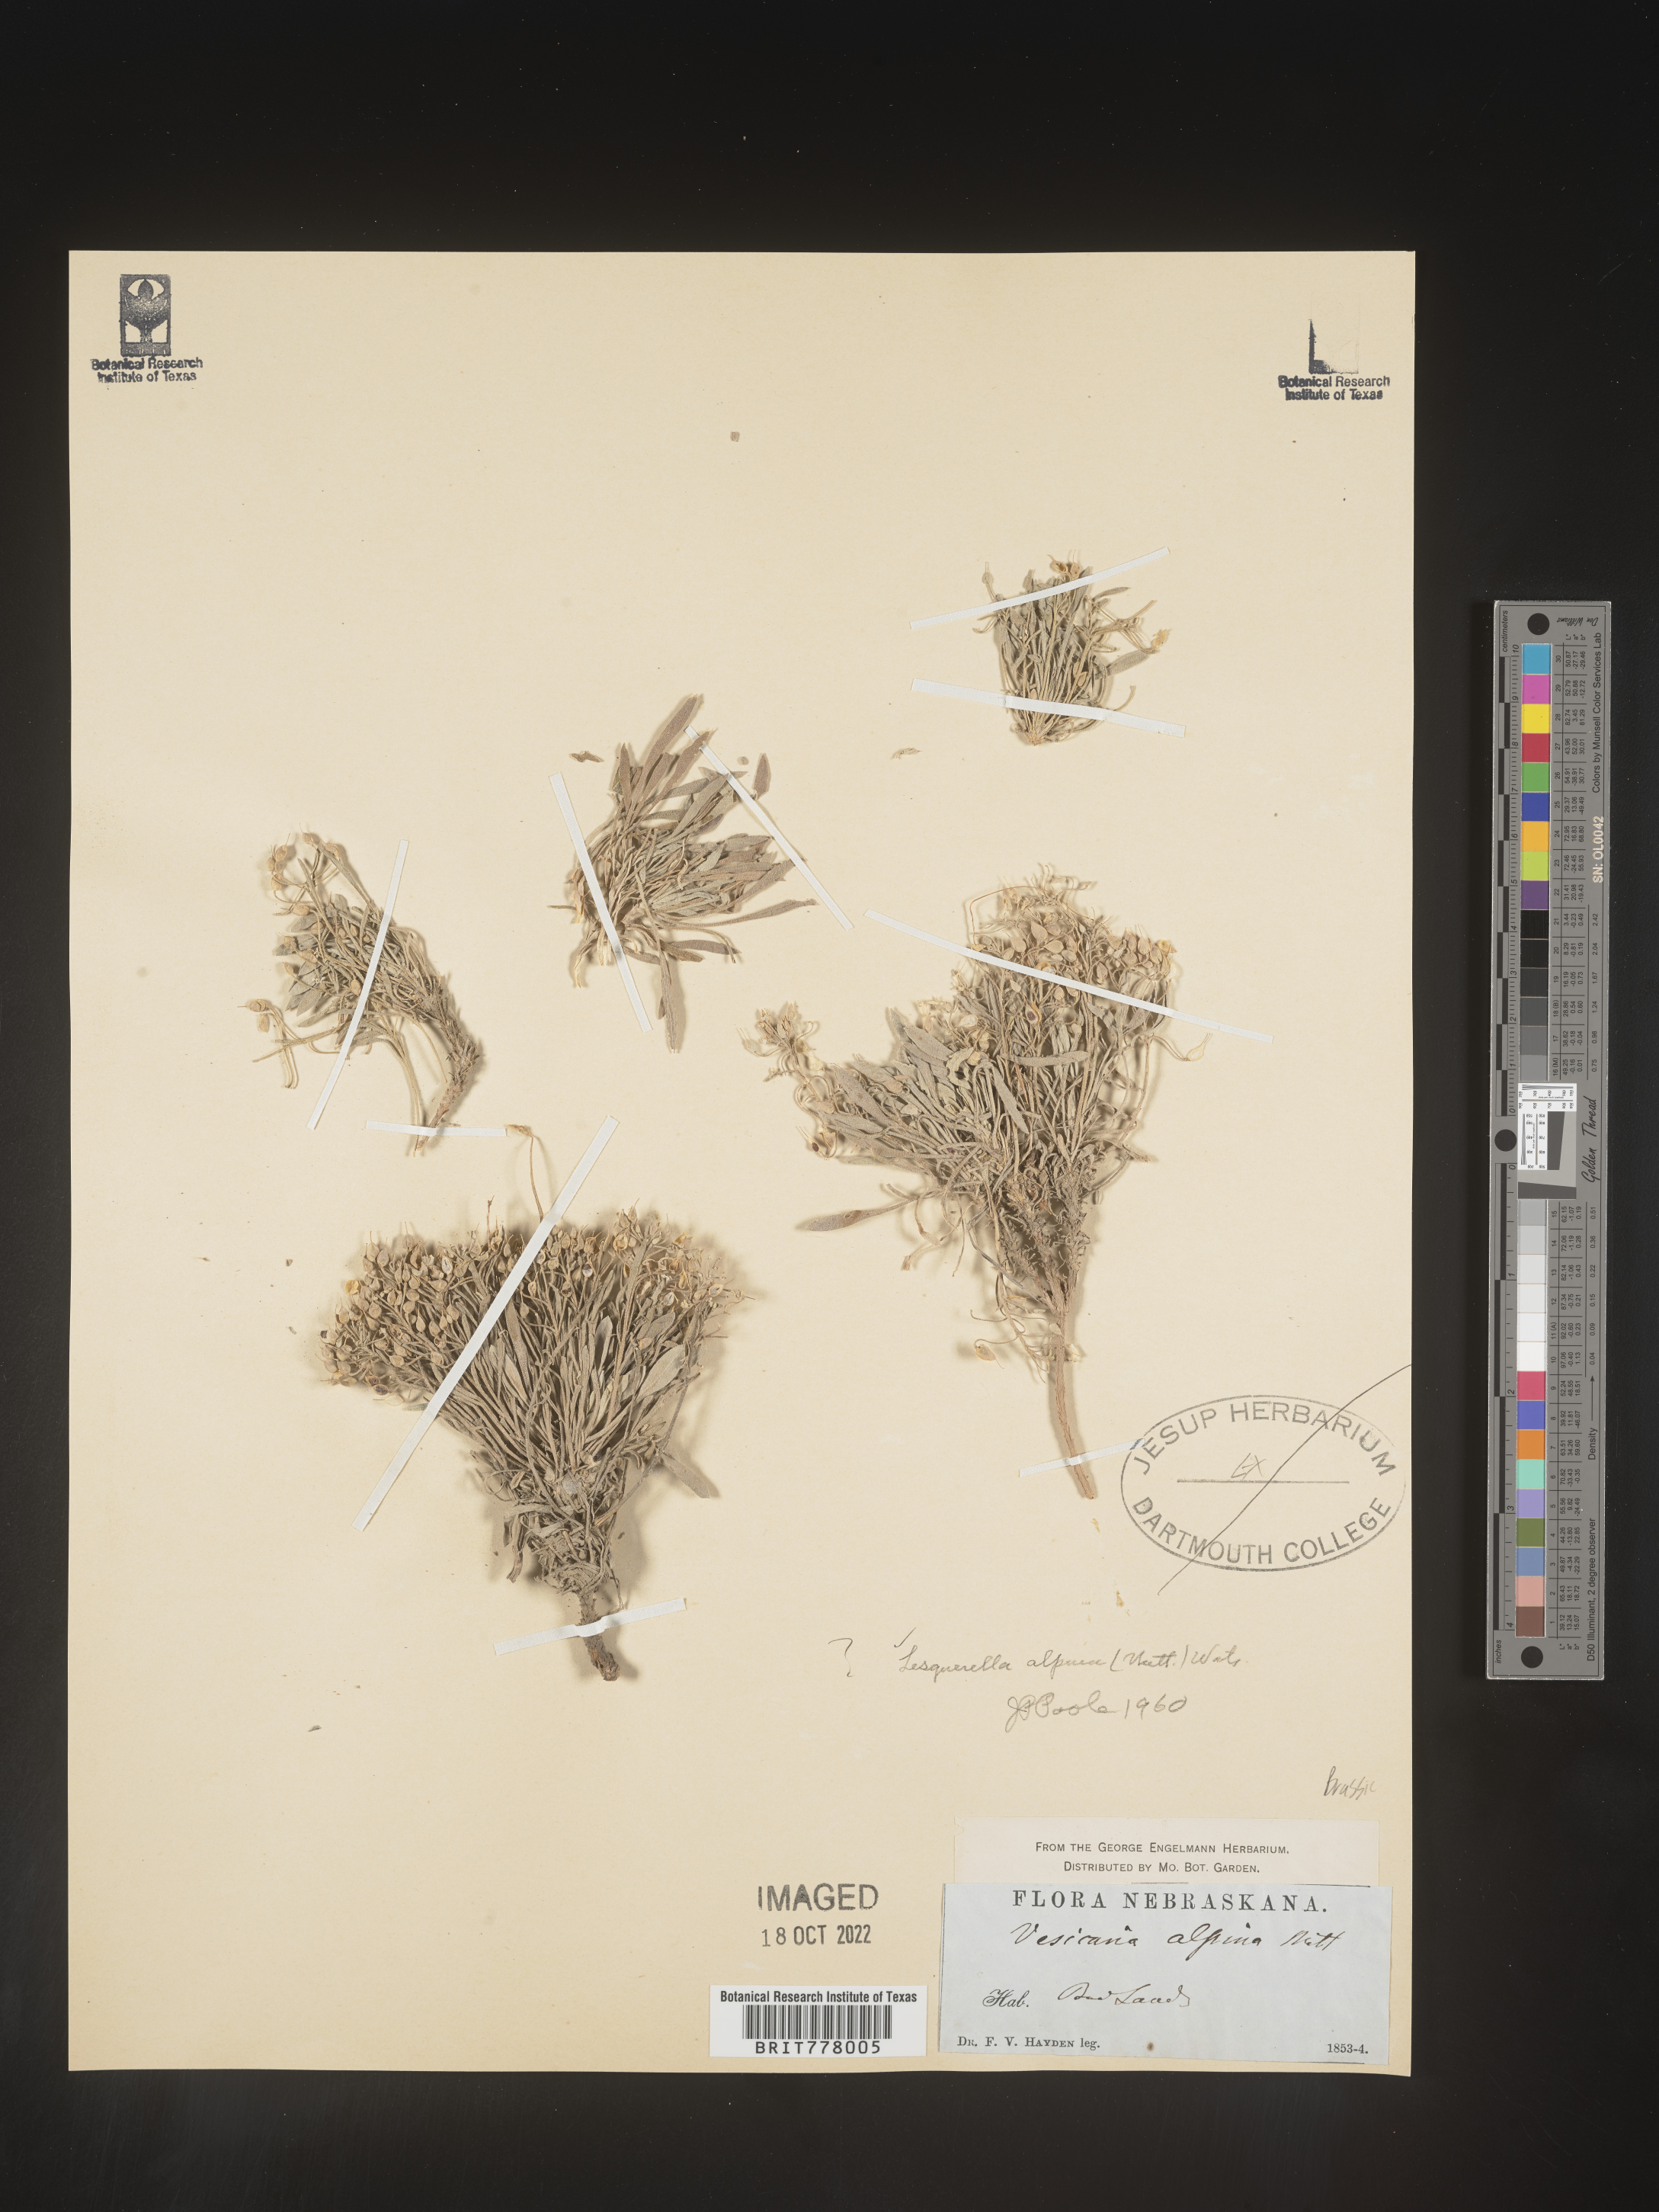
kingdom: Chromista
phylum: Cercozoa
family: Psammonobiotidae
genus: Lesquerella
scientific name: Lesquerella
